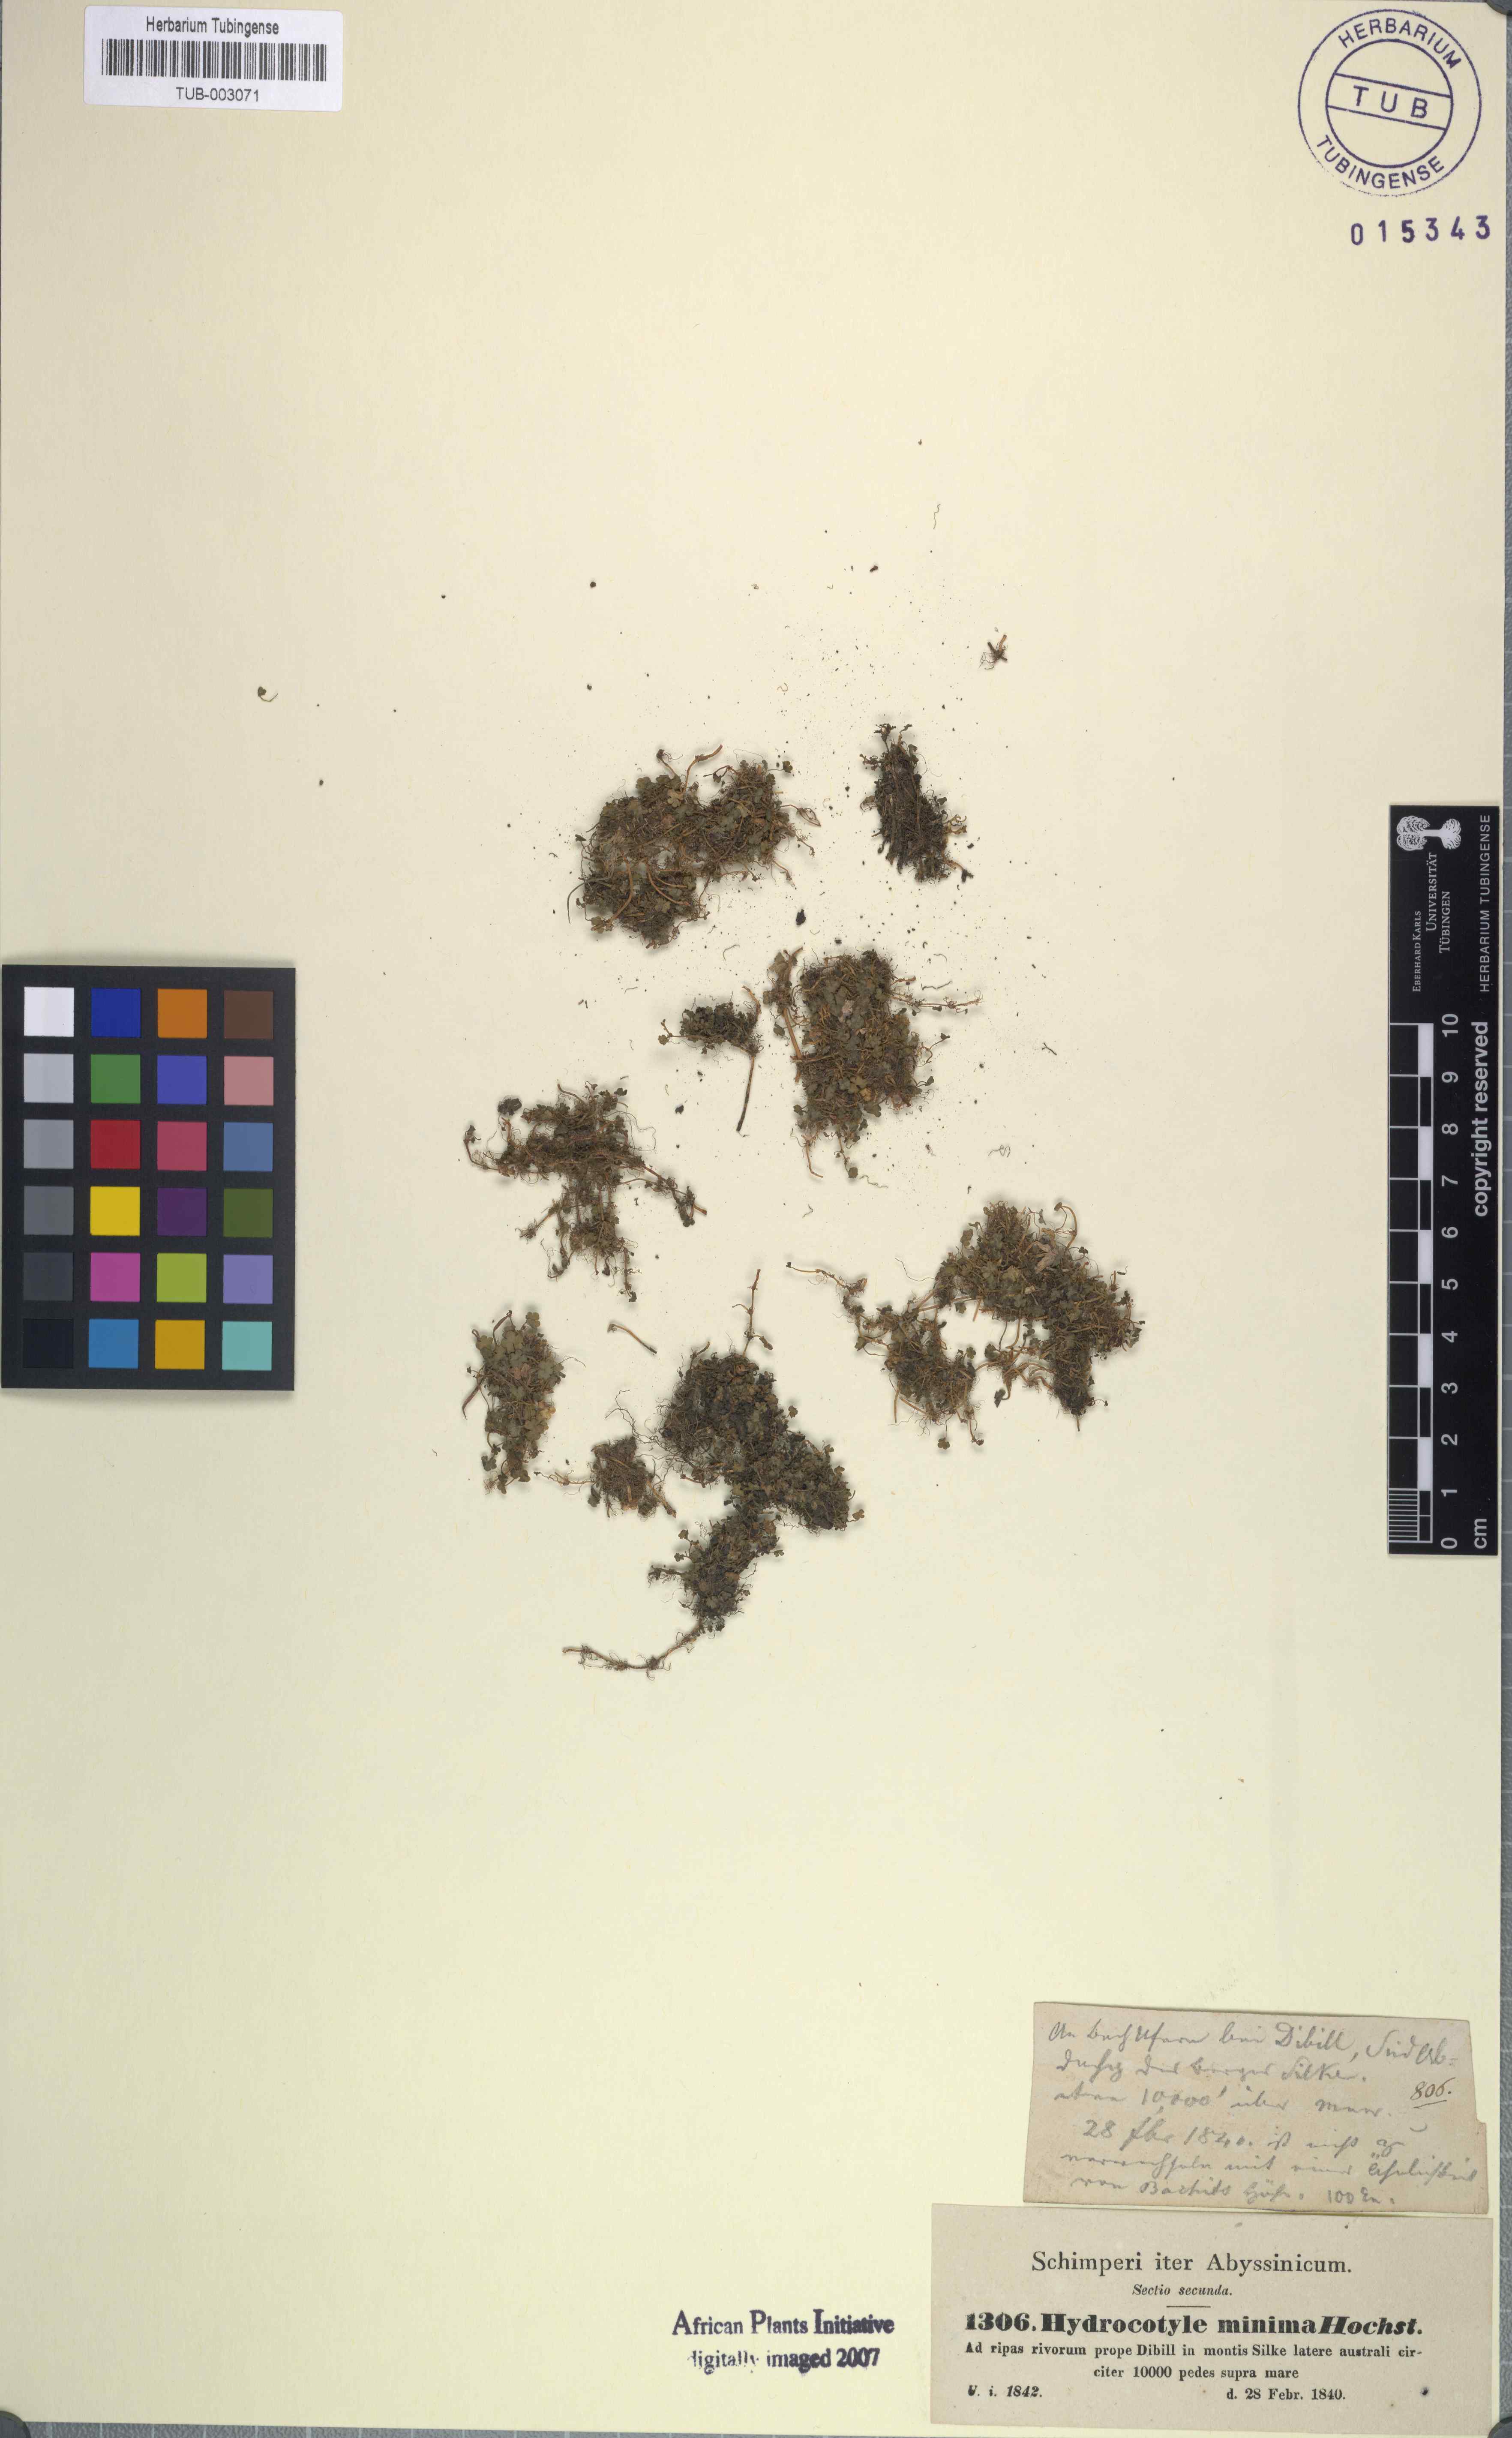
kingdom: Plantae
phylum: Tracheophyta
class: Magnoliopsida
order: Apiales
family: Araliaceae
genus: Hydrocotyle
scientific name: Hydrocotyle sibthorpioides
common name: Lawn marshpennywort
